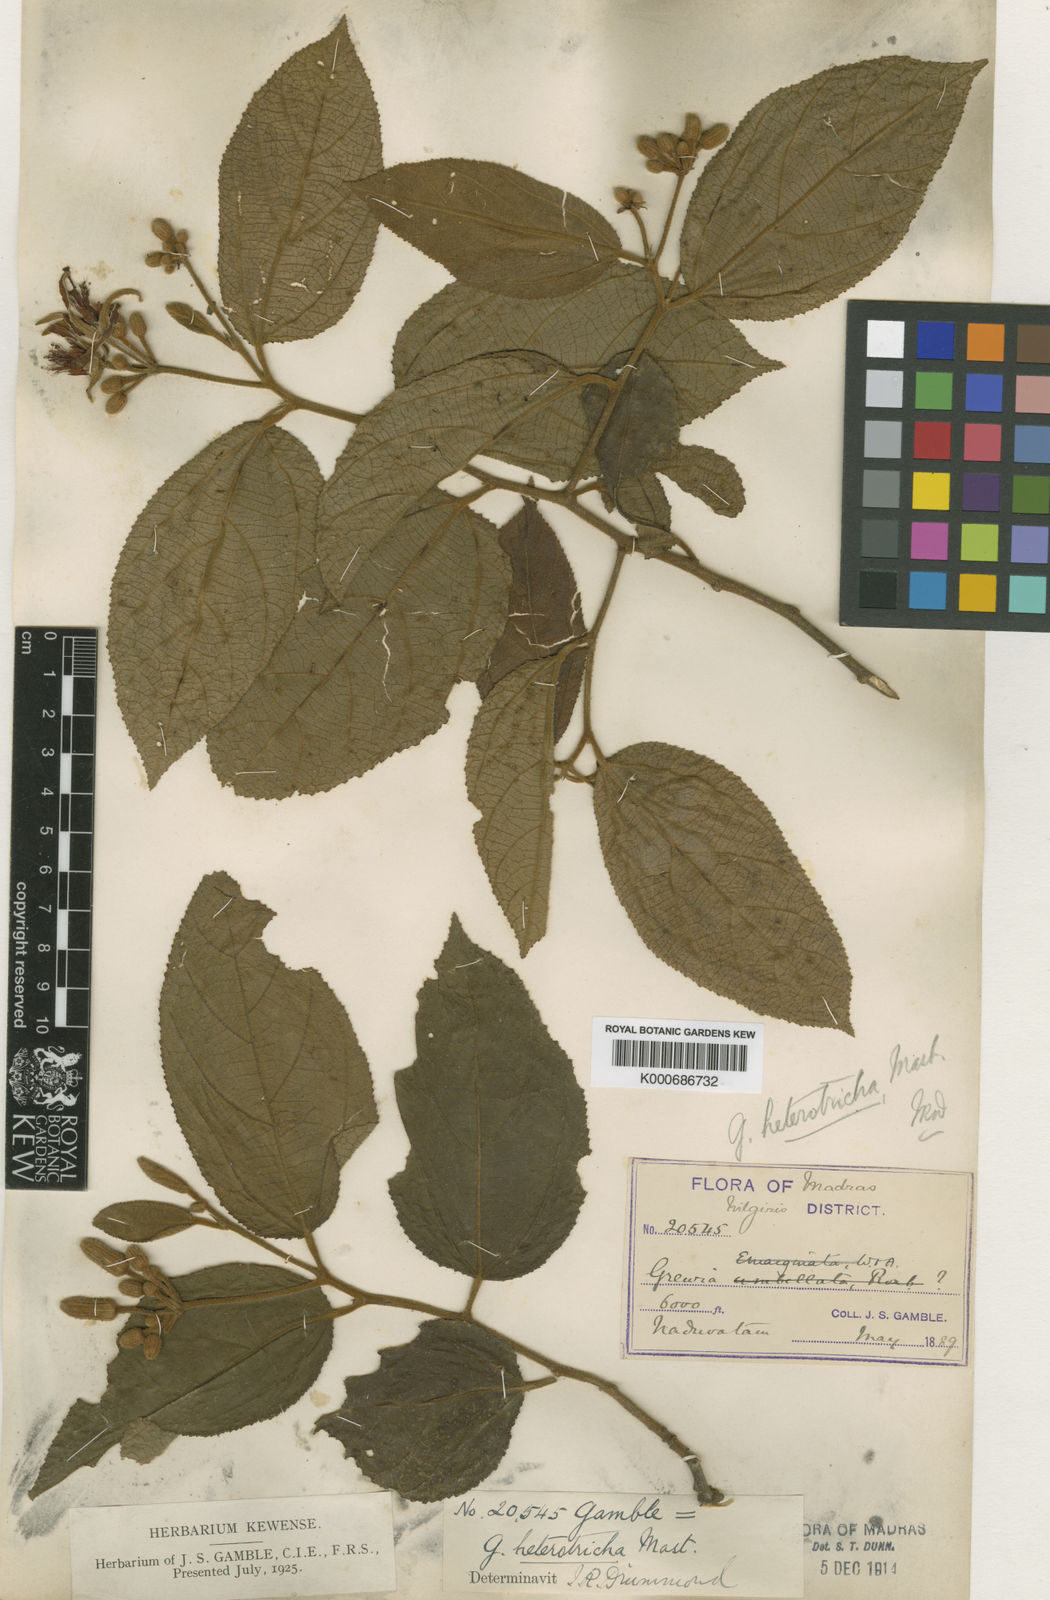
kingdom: Plantae
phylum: Tracheophyta
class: Magnoliopsida
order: Malvales
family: Malvaceae
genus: Grewia
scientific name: Grewia heterotricha
